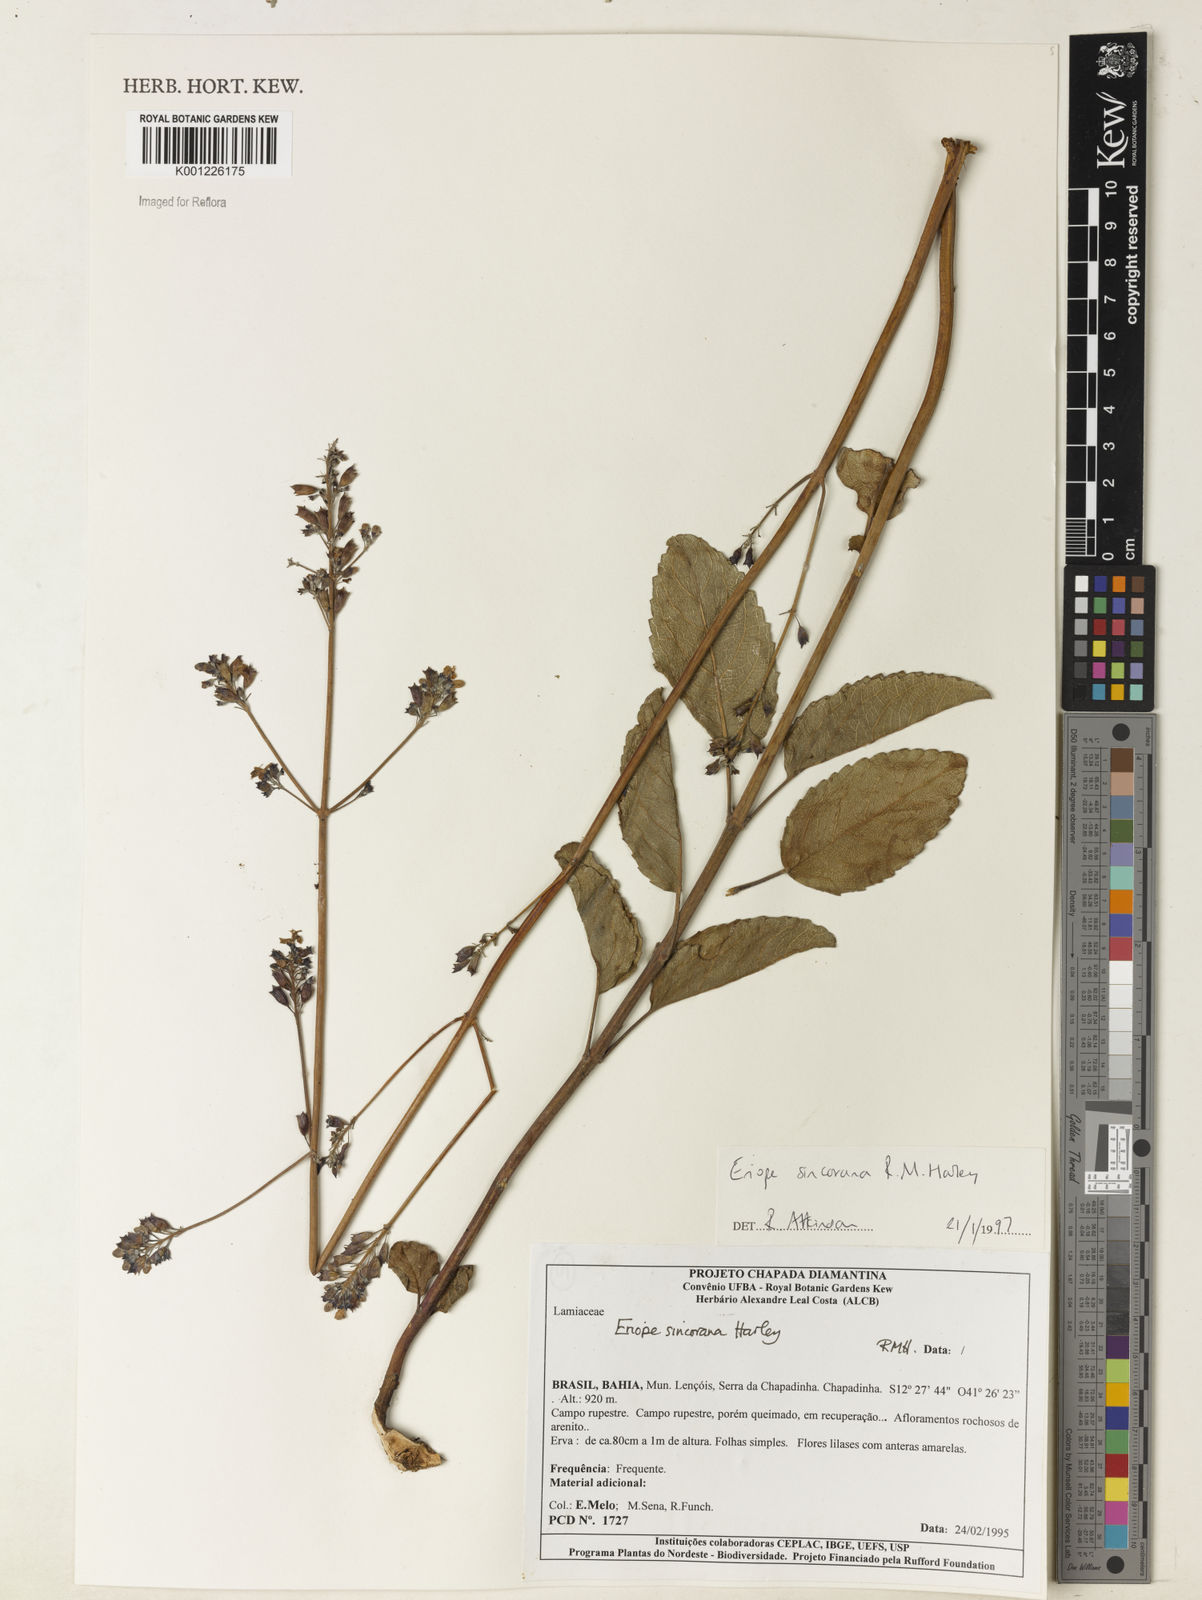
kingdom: Plantae
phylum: Tracheophyta
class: Magnoliopsida
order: Lamiales
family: Lamiaceae
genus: Eriope
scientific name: Eriope sincorana
